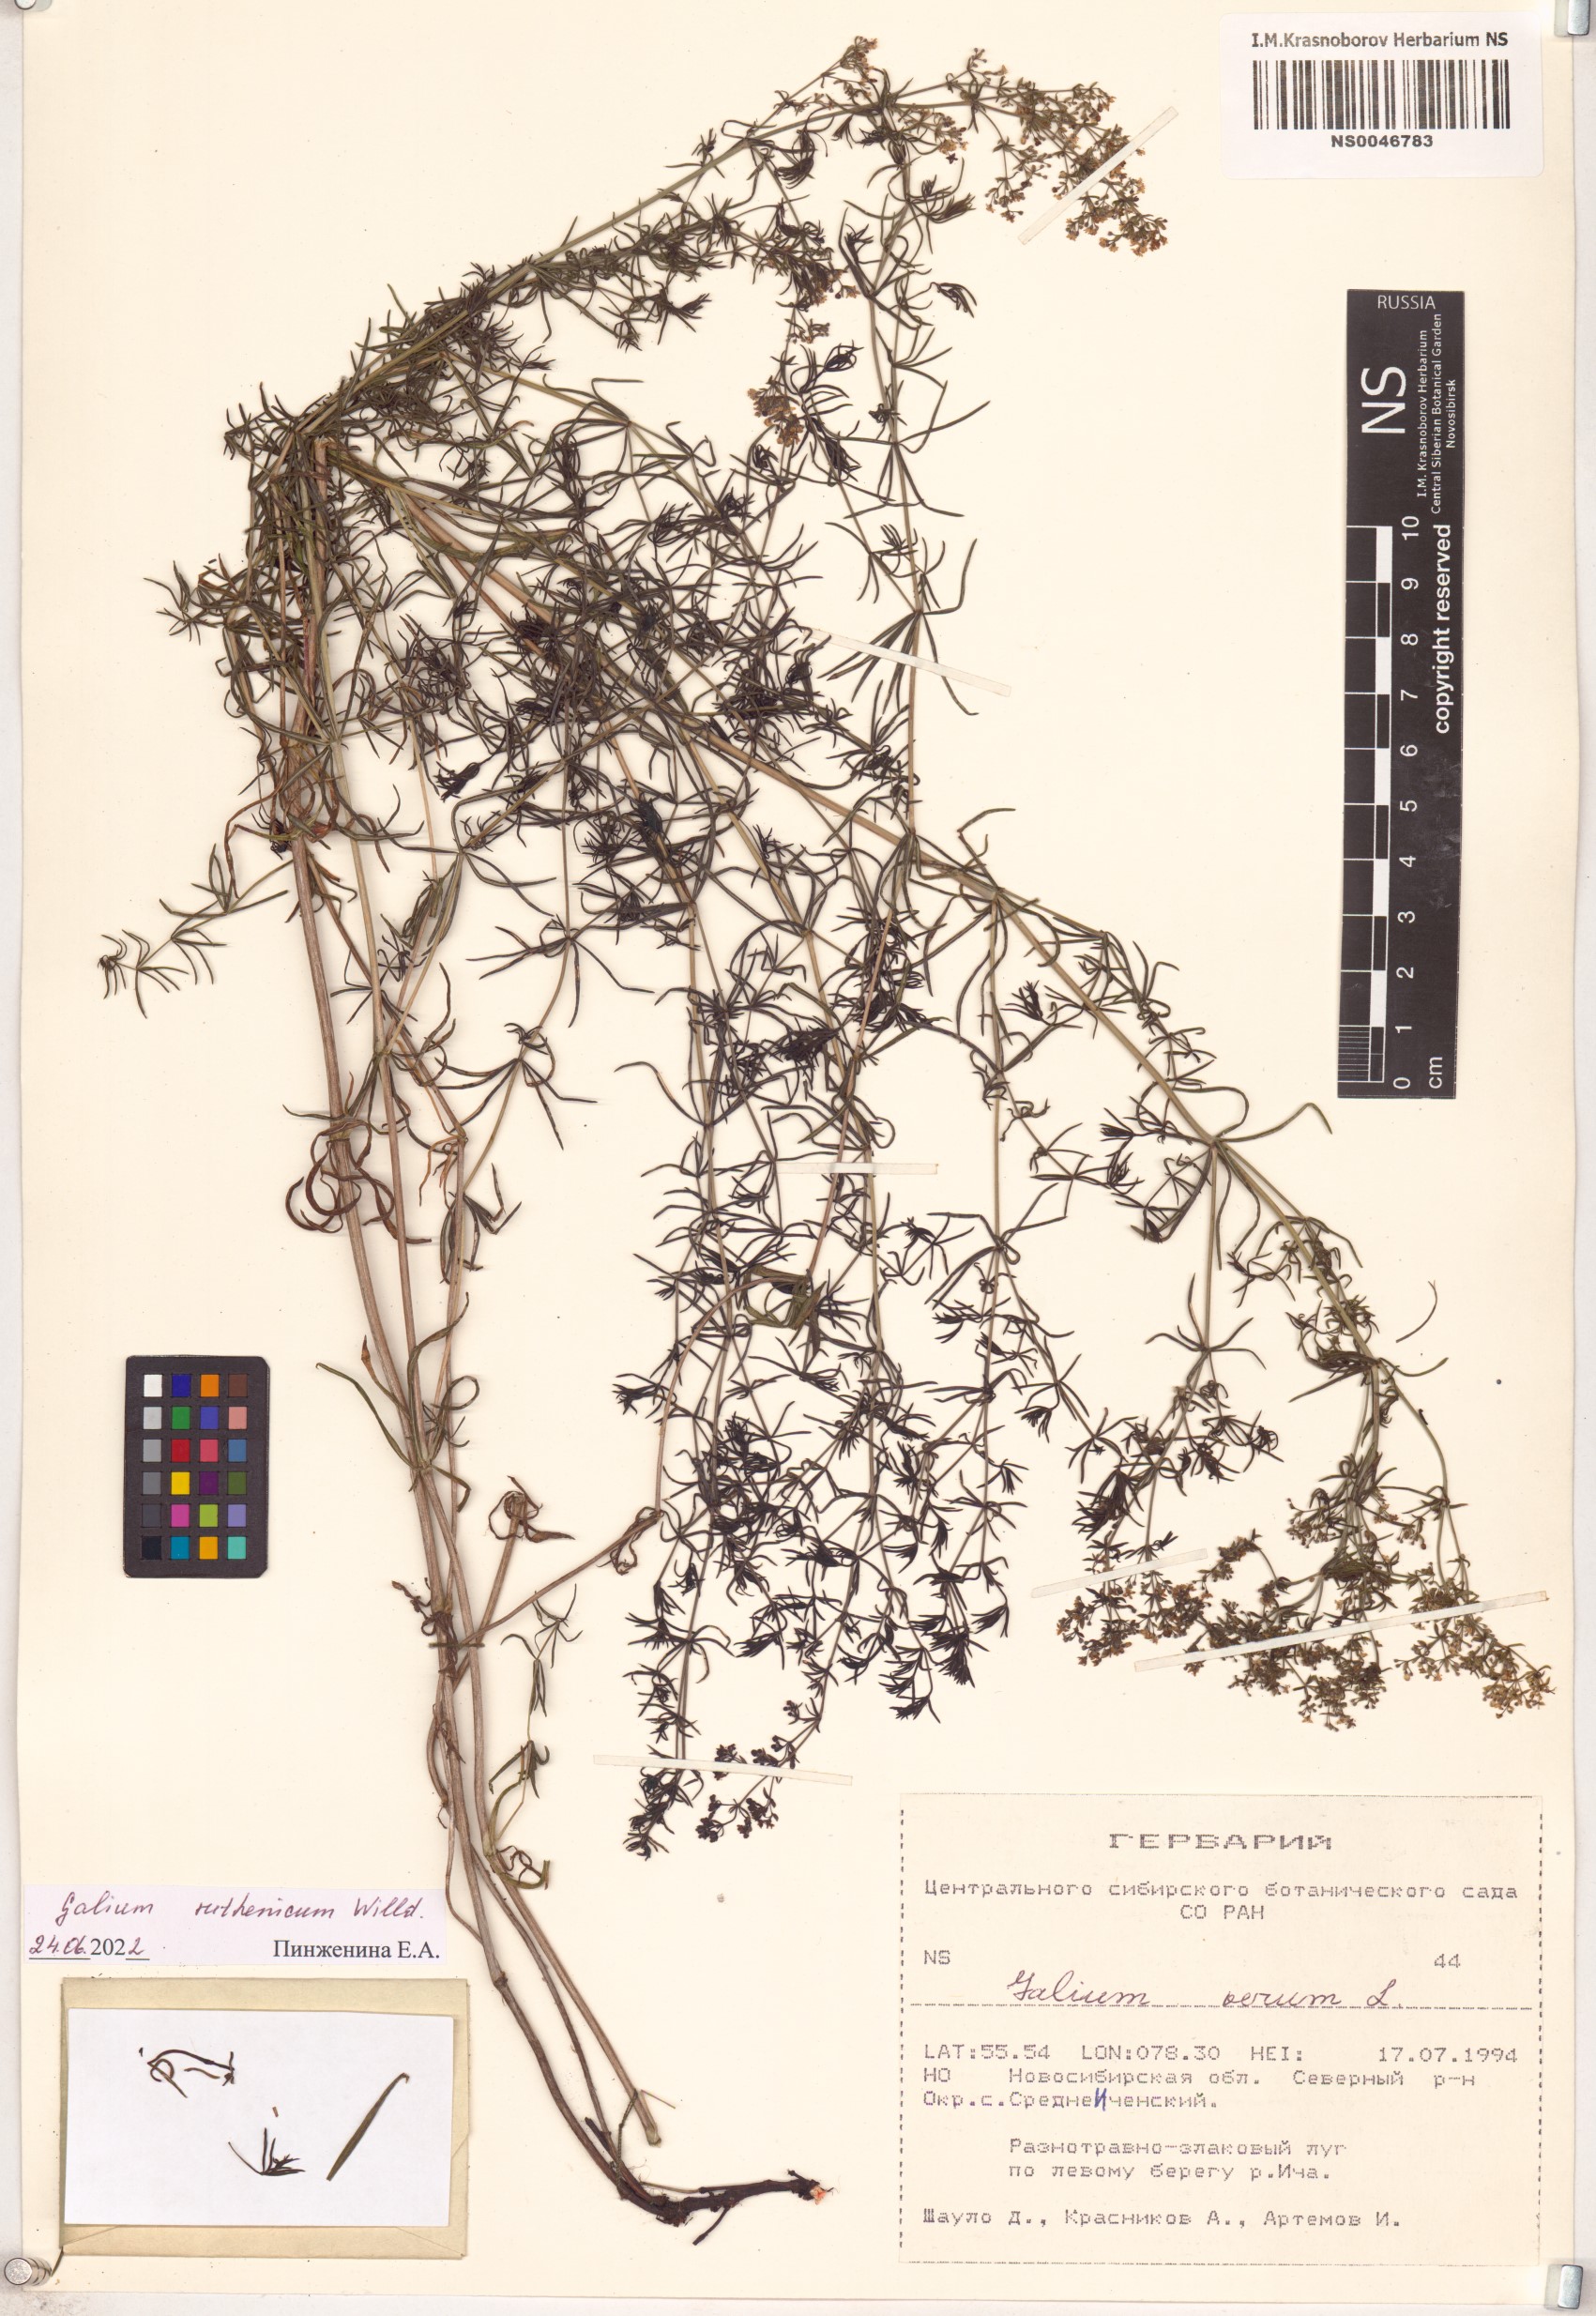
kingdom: Plantae
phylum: Tracheophyta
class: Magnoliopsida
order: Gentianales
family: Rubiaceae
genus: Galium
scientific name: Galium verum
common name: Lady's bedstraw
